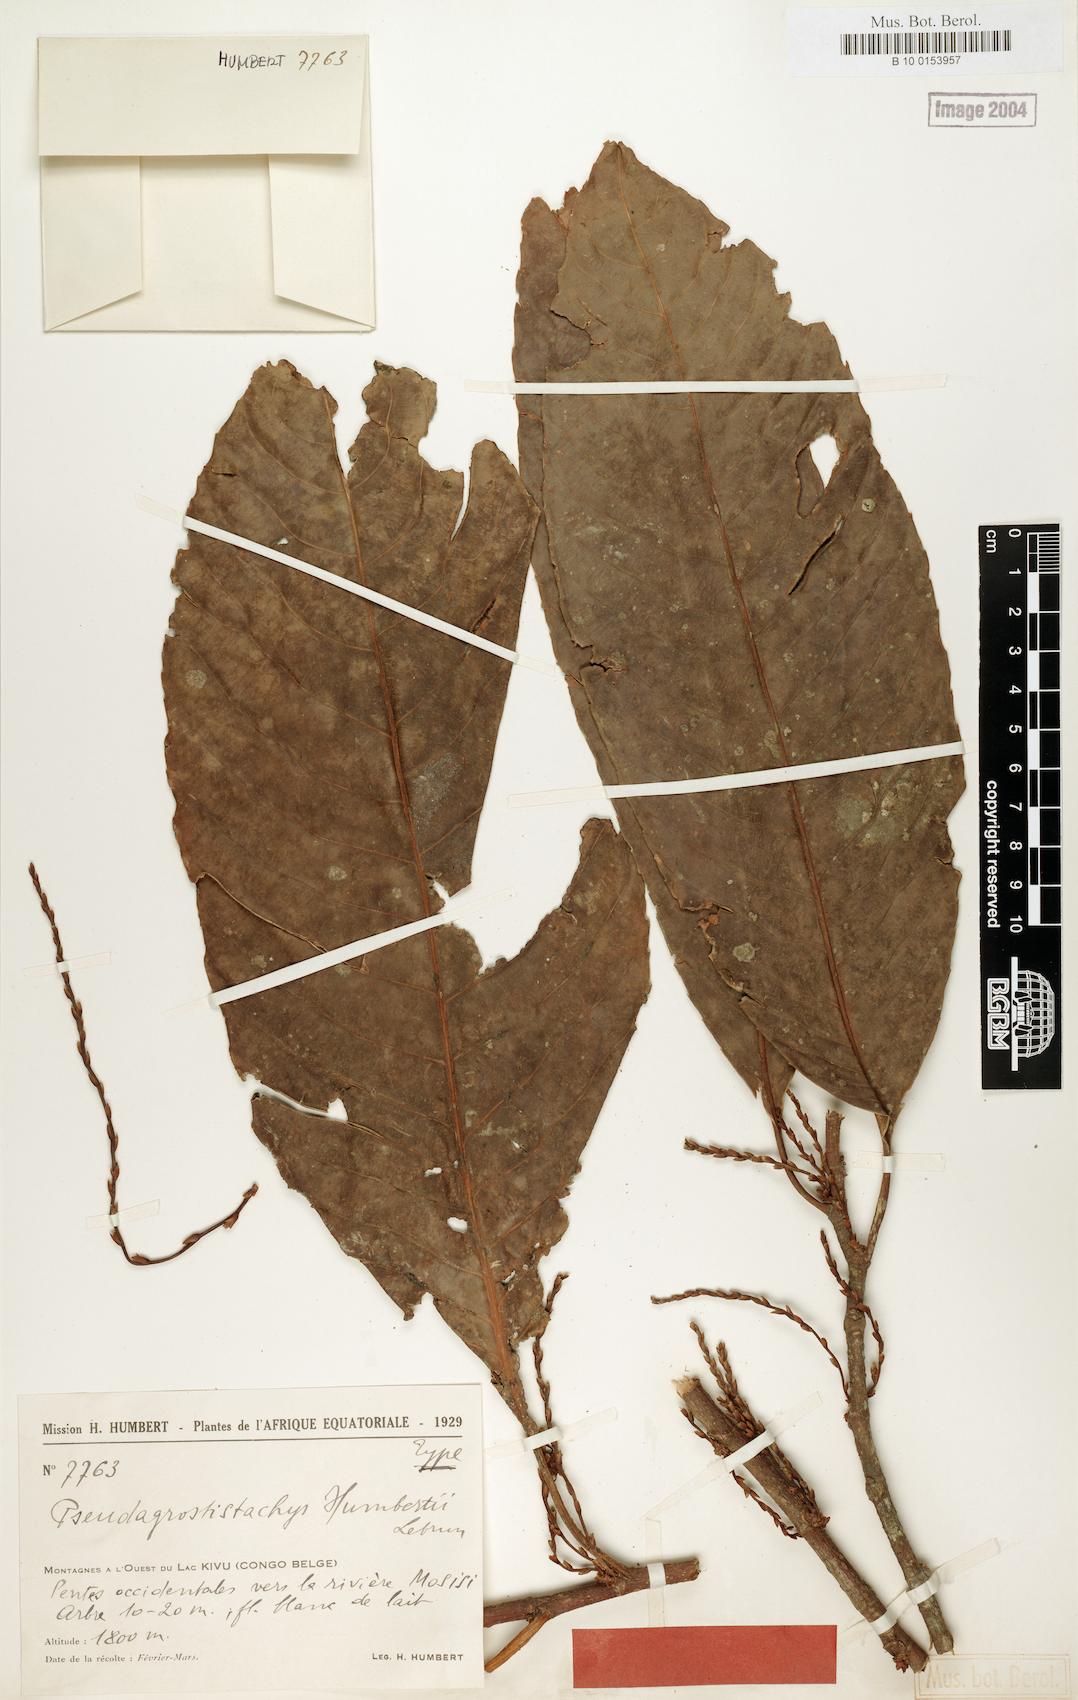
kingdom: Plantae
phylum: Tracheophyta
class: Magnoliopsida
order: Malpighiales
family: Euphorbiaceae
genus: Pseudagrostistachys
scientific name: Pseudagrostistachys africana
